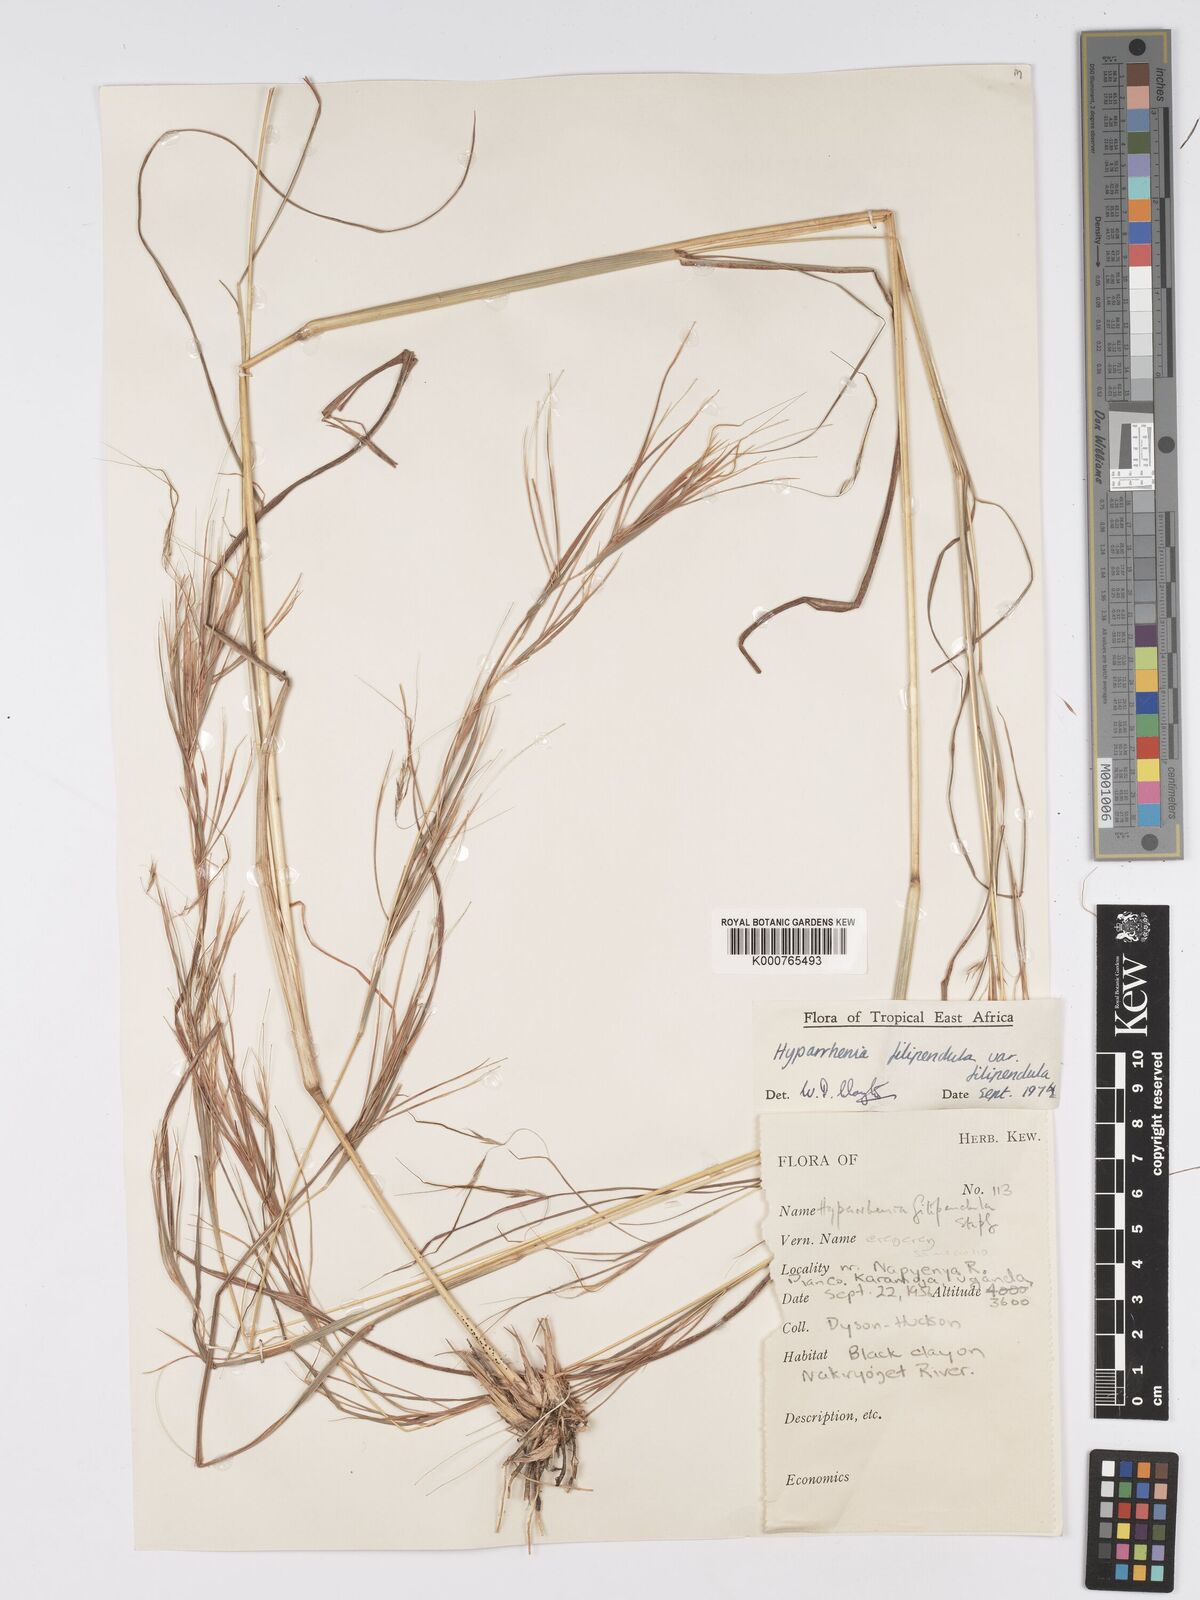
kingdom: Plantae
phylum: Tracheophyta
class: Liliopsida
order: Poales
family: Poaceae
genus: Hyparrhenia
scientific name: Hyparrhenia filipendula
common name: Tambookie grass
